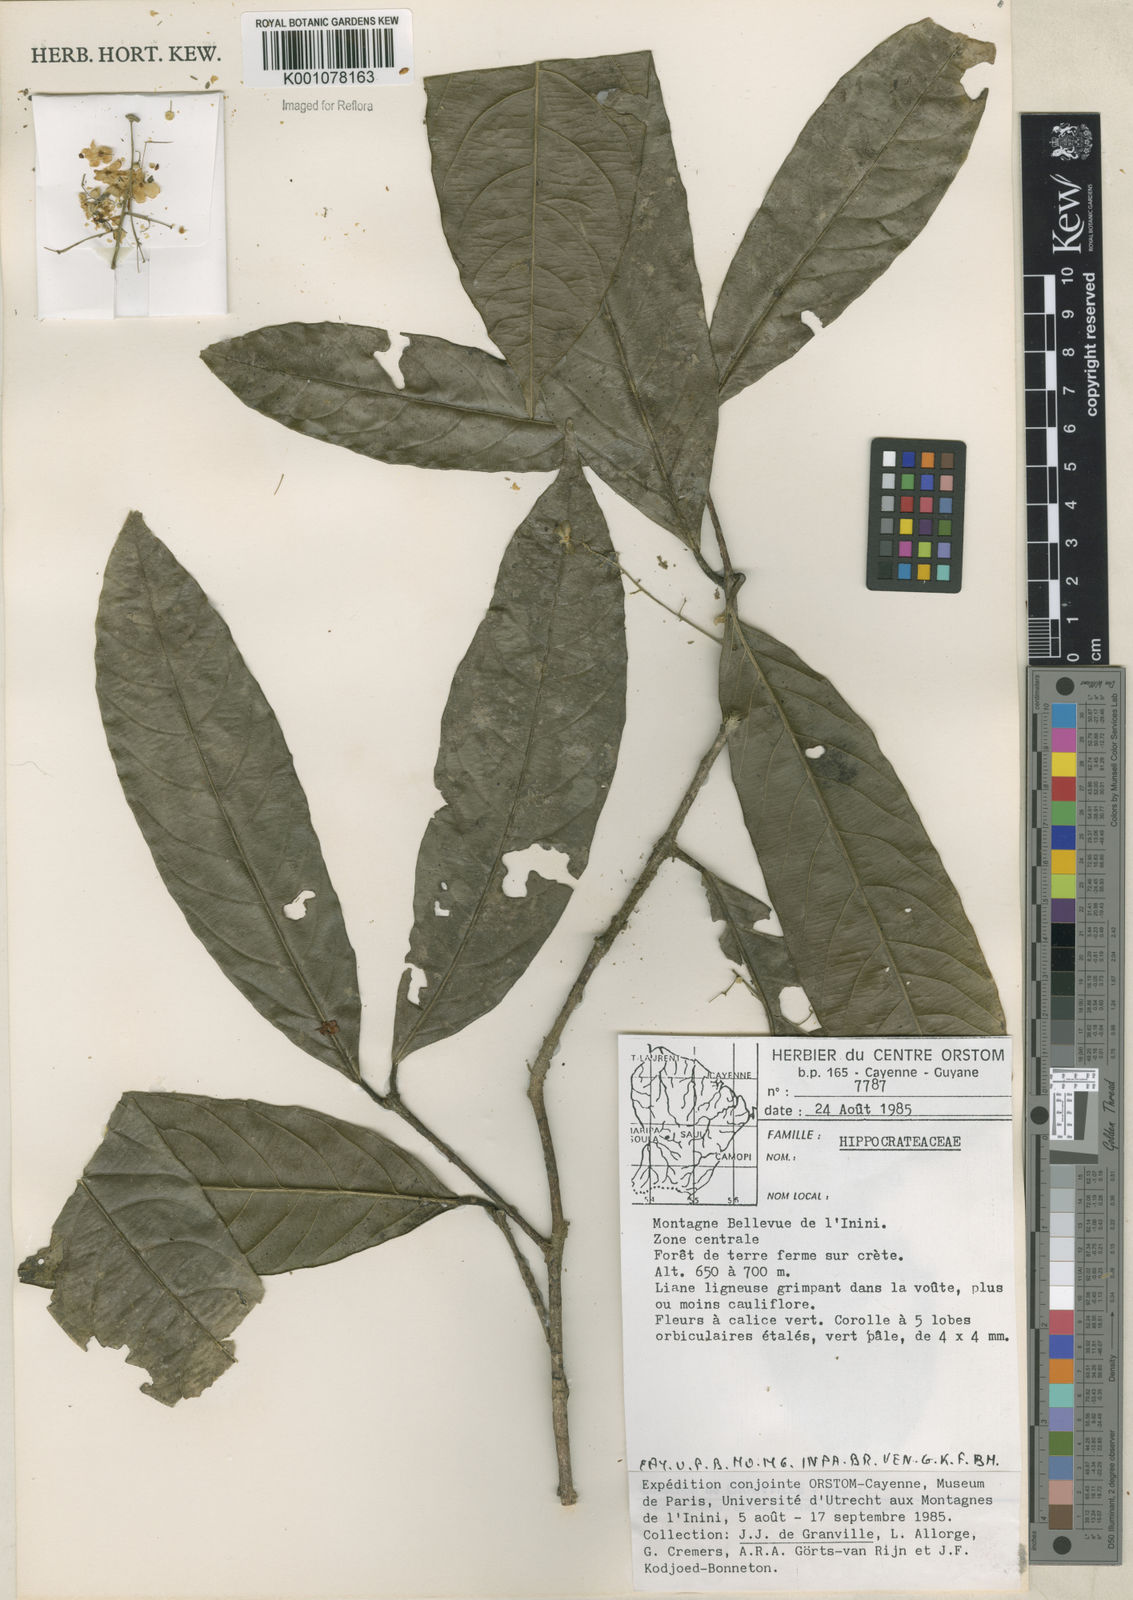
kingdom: Plantae
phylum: Tracheophyta
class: Magnoliopsida
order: Celastrales
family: Celastraceae
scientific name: Celastraceae
